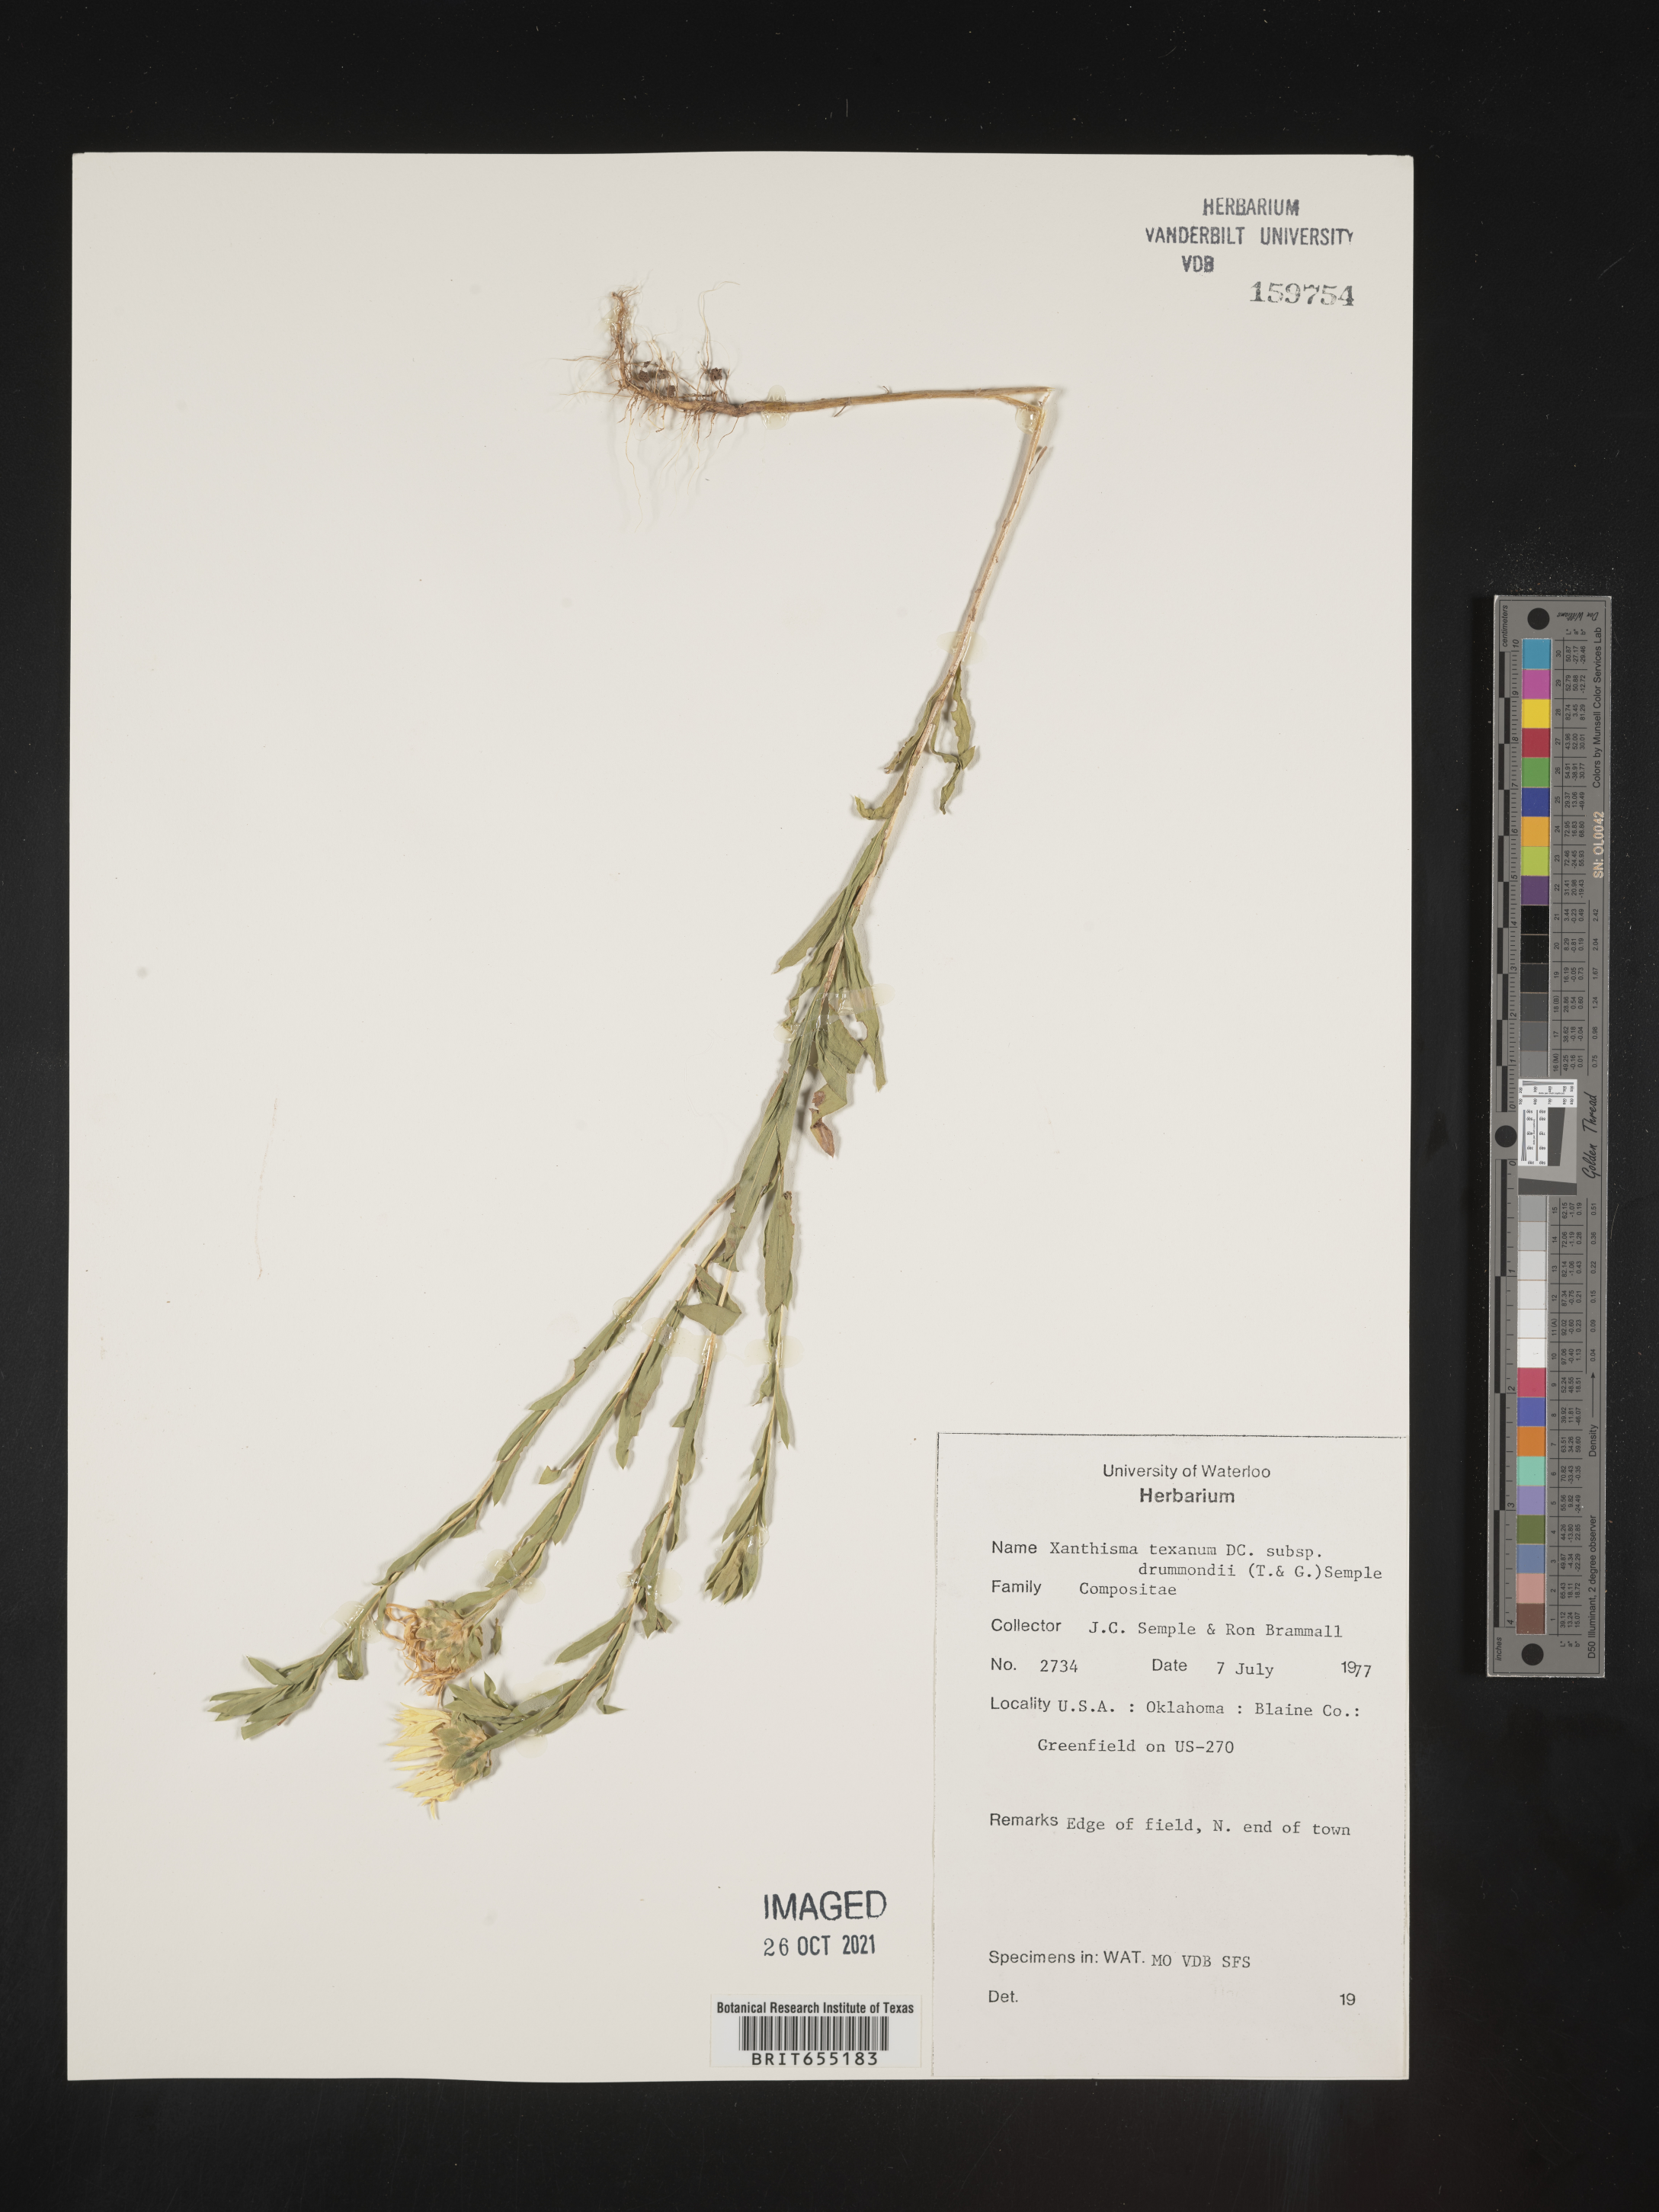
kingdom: Plantae
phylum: Tracheophyta
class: Magnoliopsida
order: Asterales
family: Asteraceae
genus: Xanthisma
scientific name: Xanthisma texanum
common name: Texas sleepy daisy
